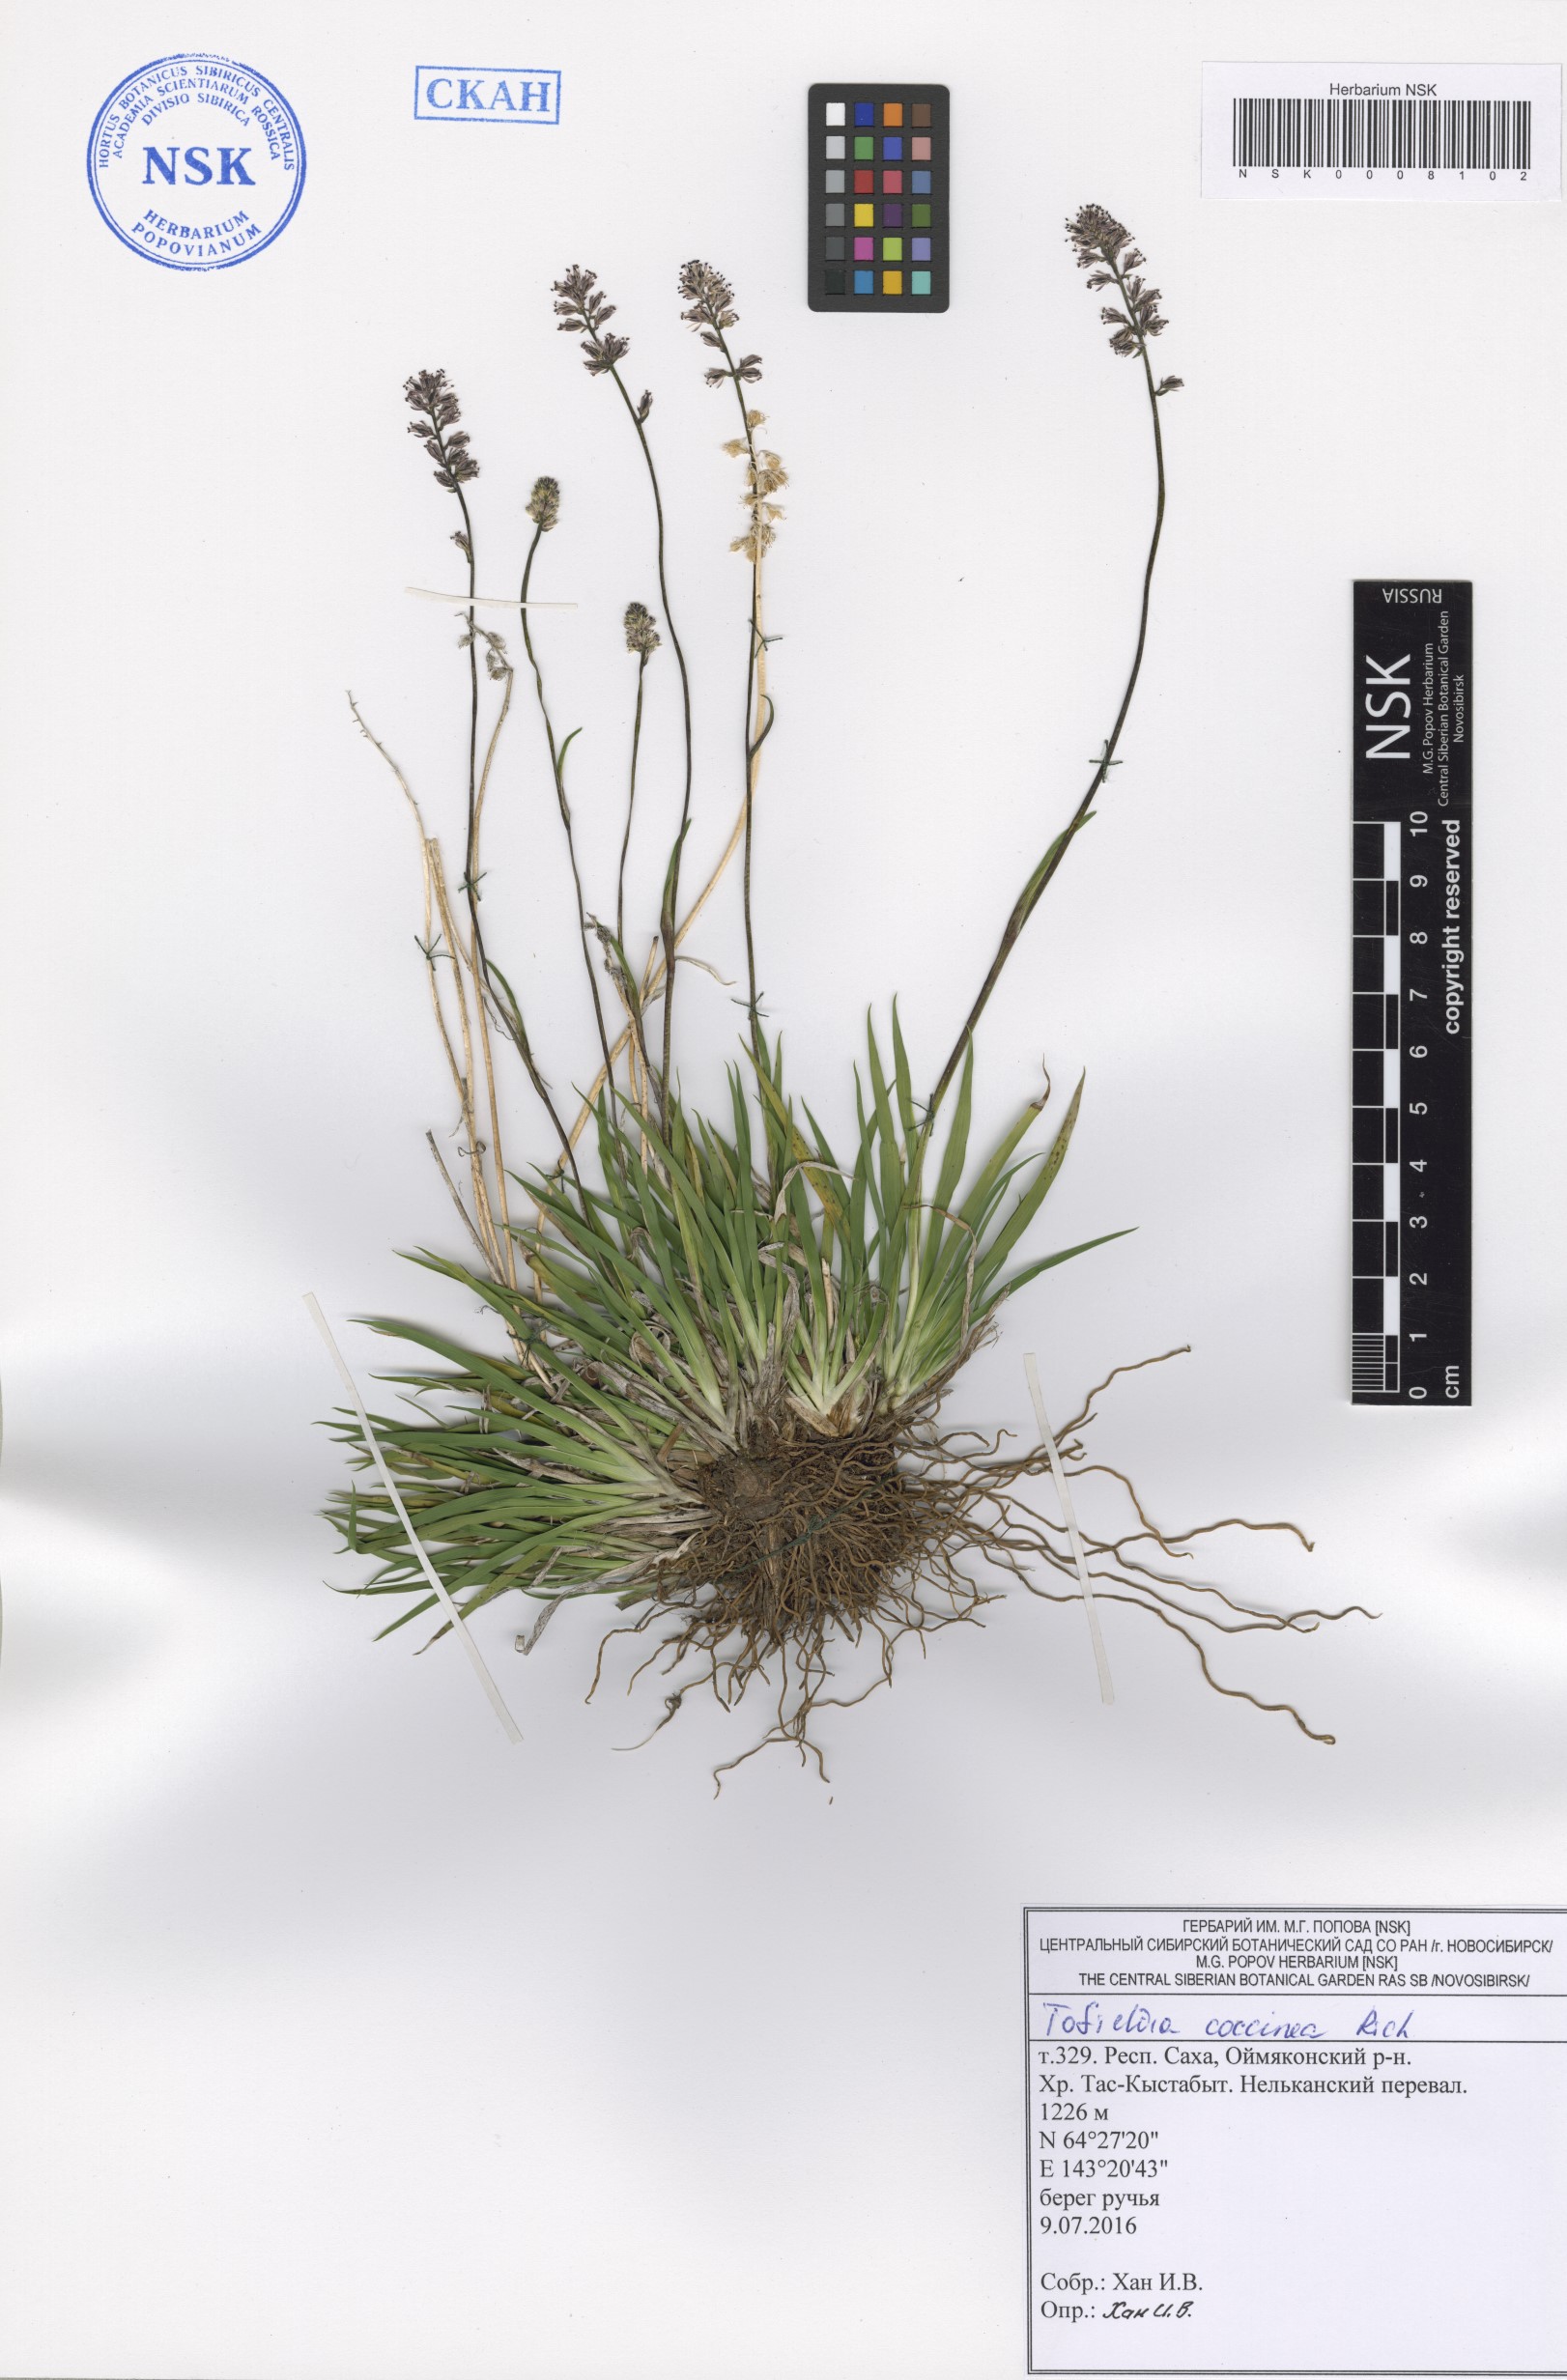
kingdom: Plantae
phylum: Tracheophyta
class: Liliopsida
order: Alismatales
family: Tofieldiaceae
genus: Tofieldia
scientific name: Tofieldia coccinea
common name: Northern false asphodel
